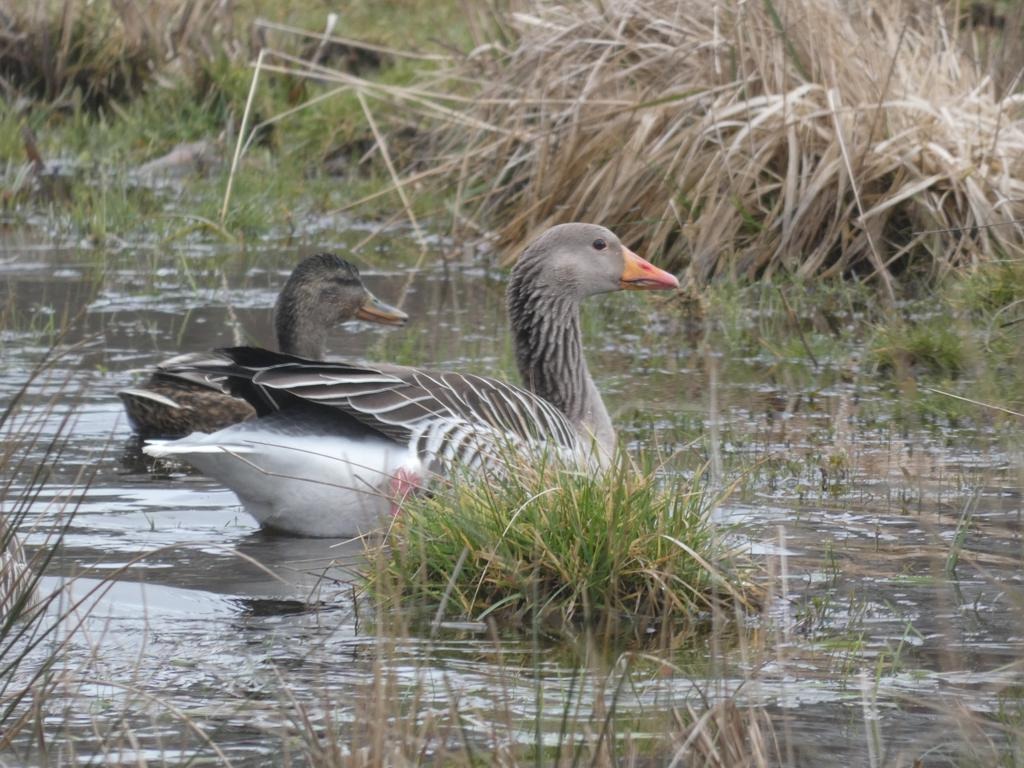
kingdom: Animalia
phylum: Chordata
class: Aves
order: Anseriformes
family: Anatidae
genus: Anser
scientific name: Anser anser
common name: Grågås
